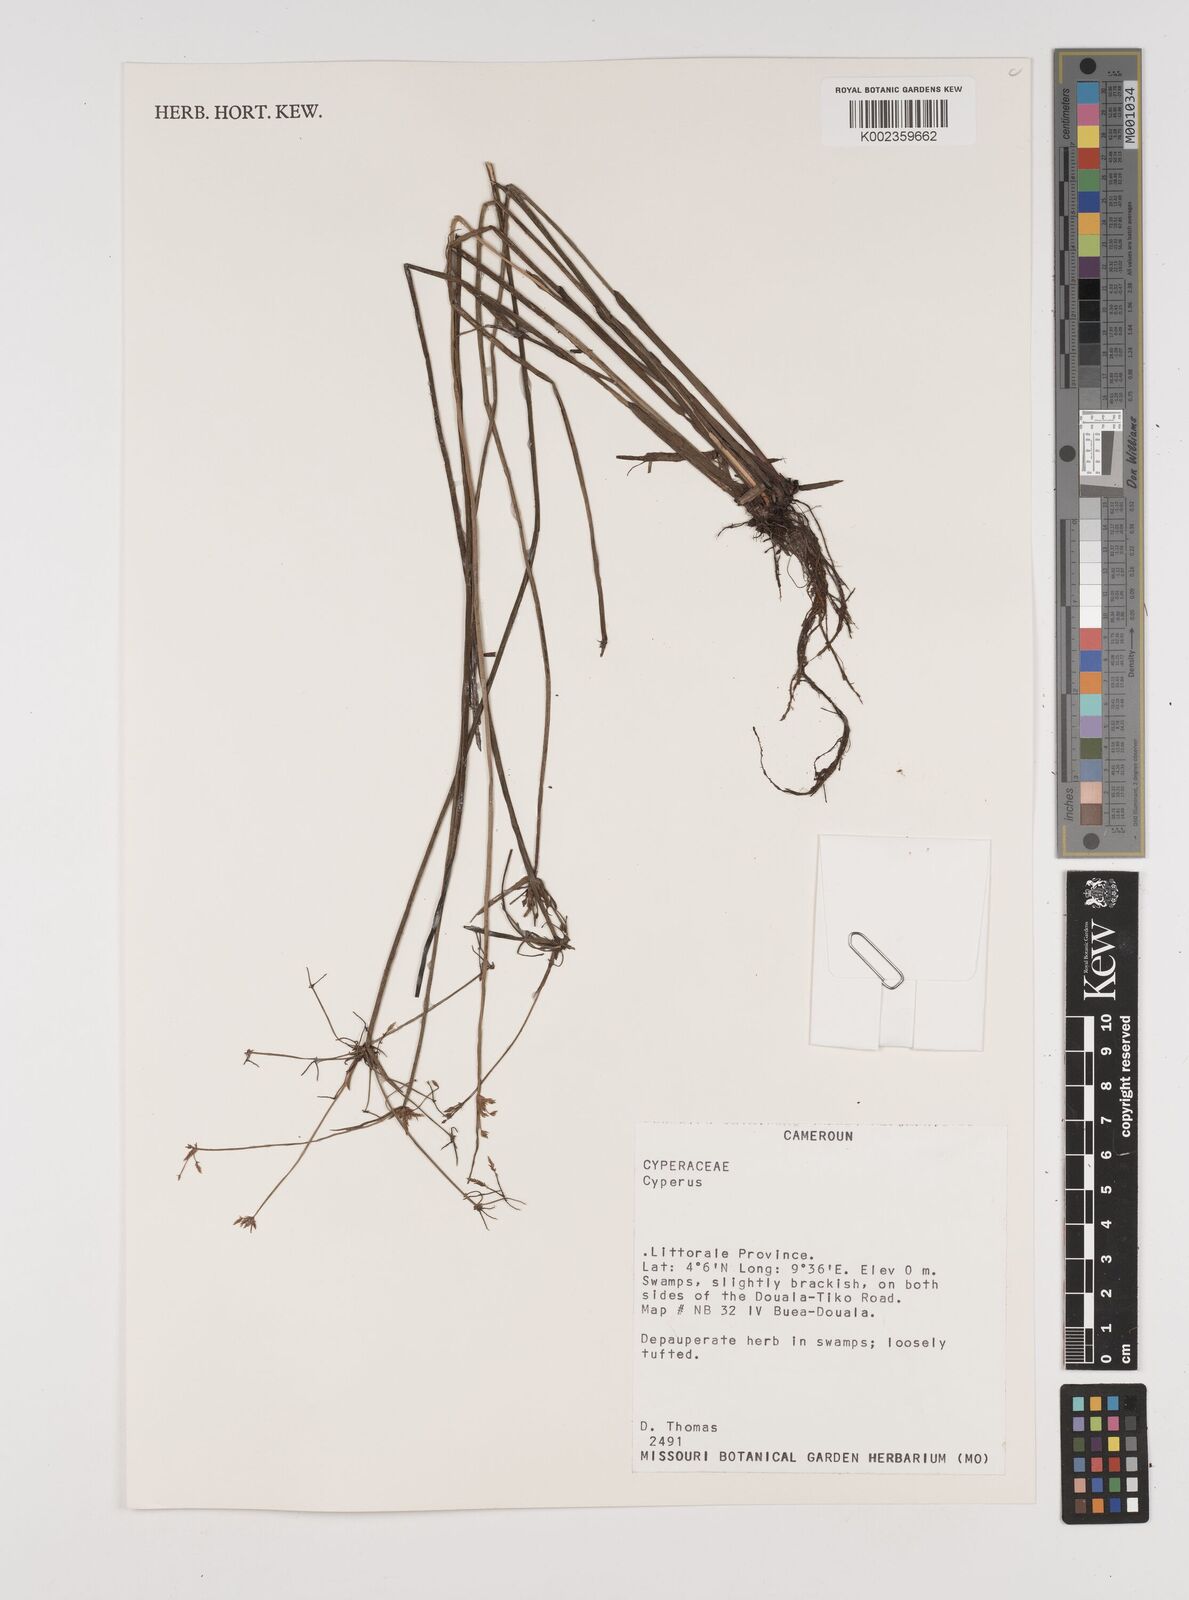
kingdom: Plantae
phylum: Tracheophyta
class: Liliopsida
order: Poales
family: Cyperaceae
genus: Cyperus
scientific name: Cyperus
